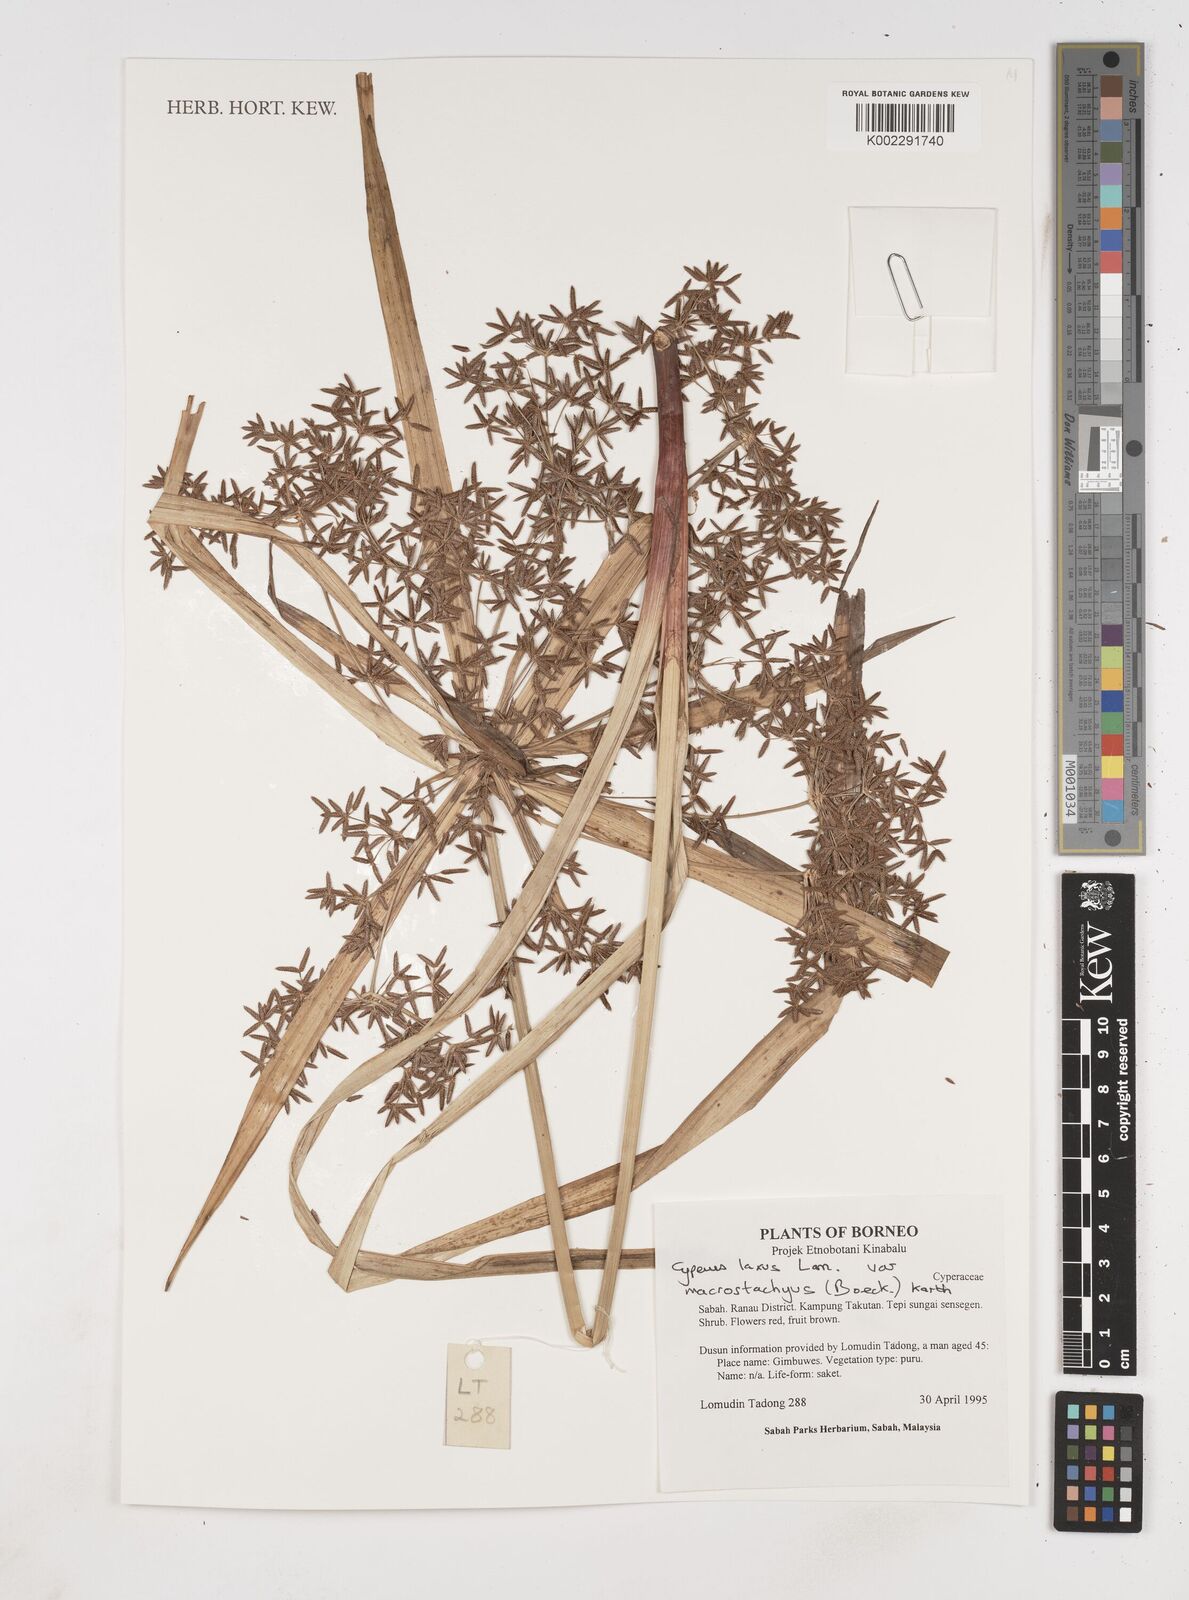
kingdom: Plantae
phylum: Tracheophyta
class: Liliopsida
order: Poales
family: Cyperaceae
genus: Cyperus
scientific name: Cyperus diffusus
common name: Dwarf umbrella grass
